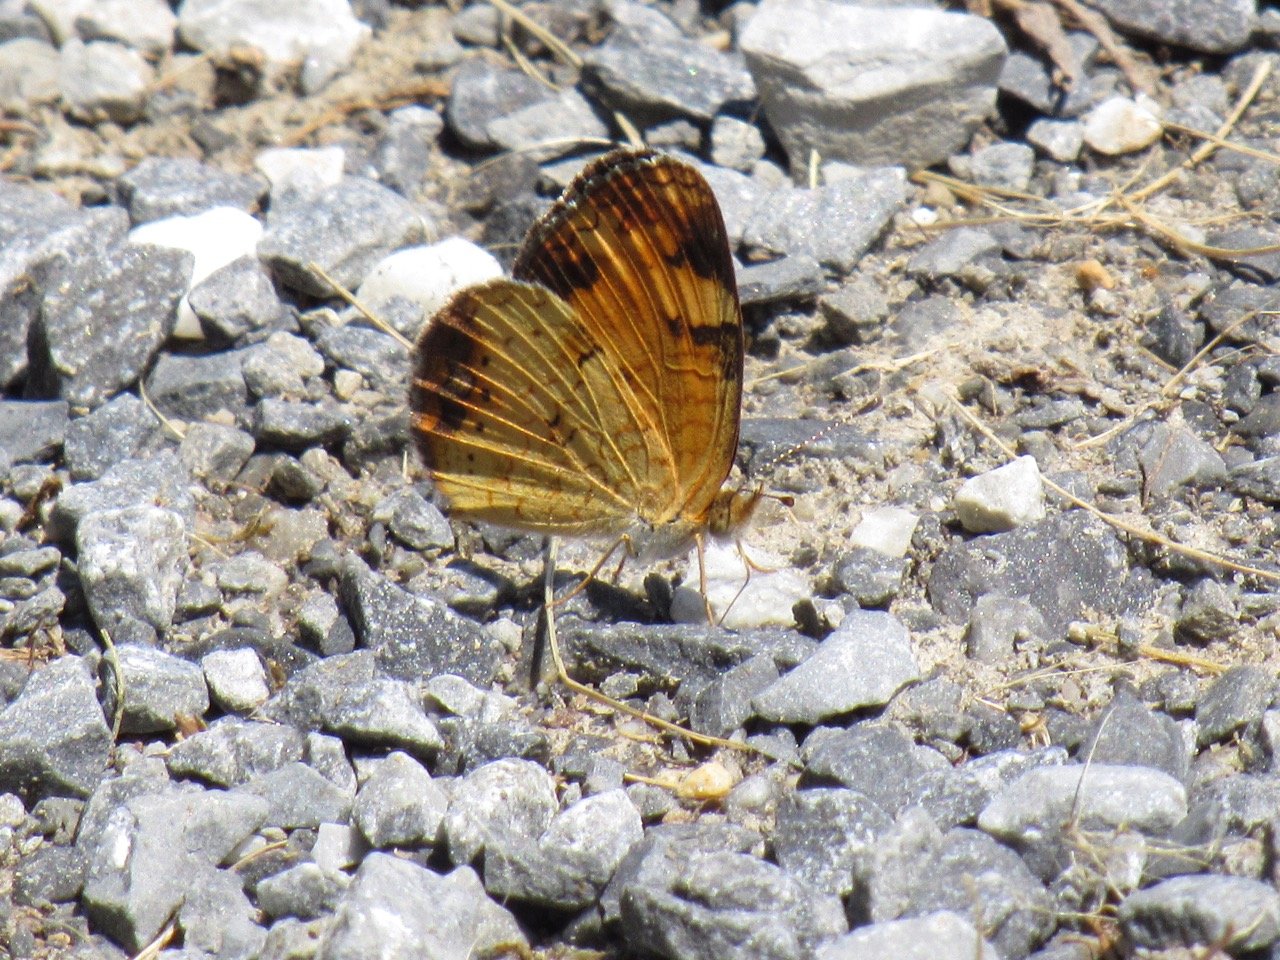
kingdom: Animalia
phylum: Arthropoda
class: Insecta
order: Lepidoptera
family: Nymphalidae
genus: Phyciodes
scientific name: Phyciodes tharos
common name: Pearl Crescent
